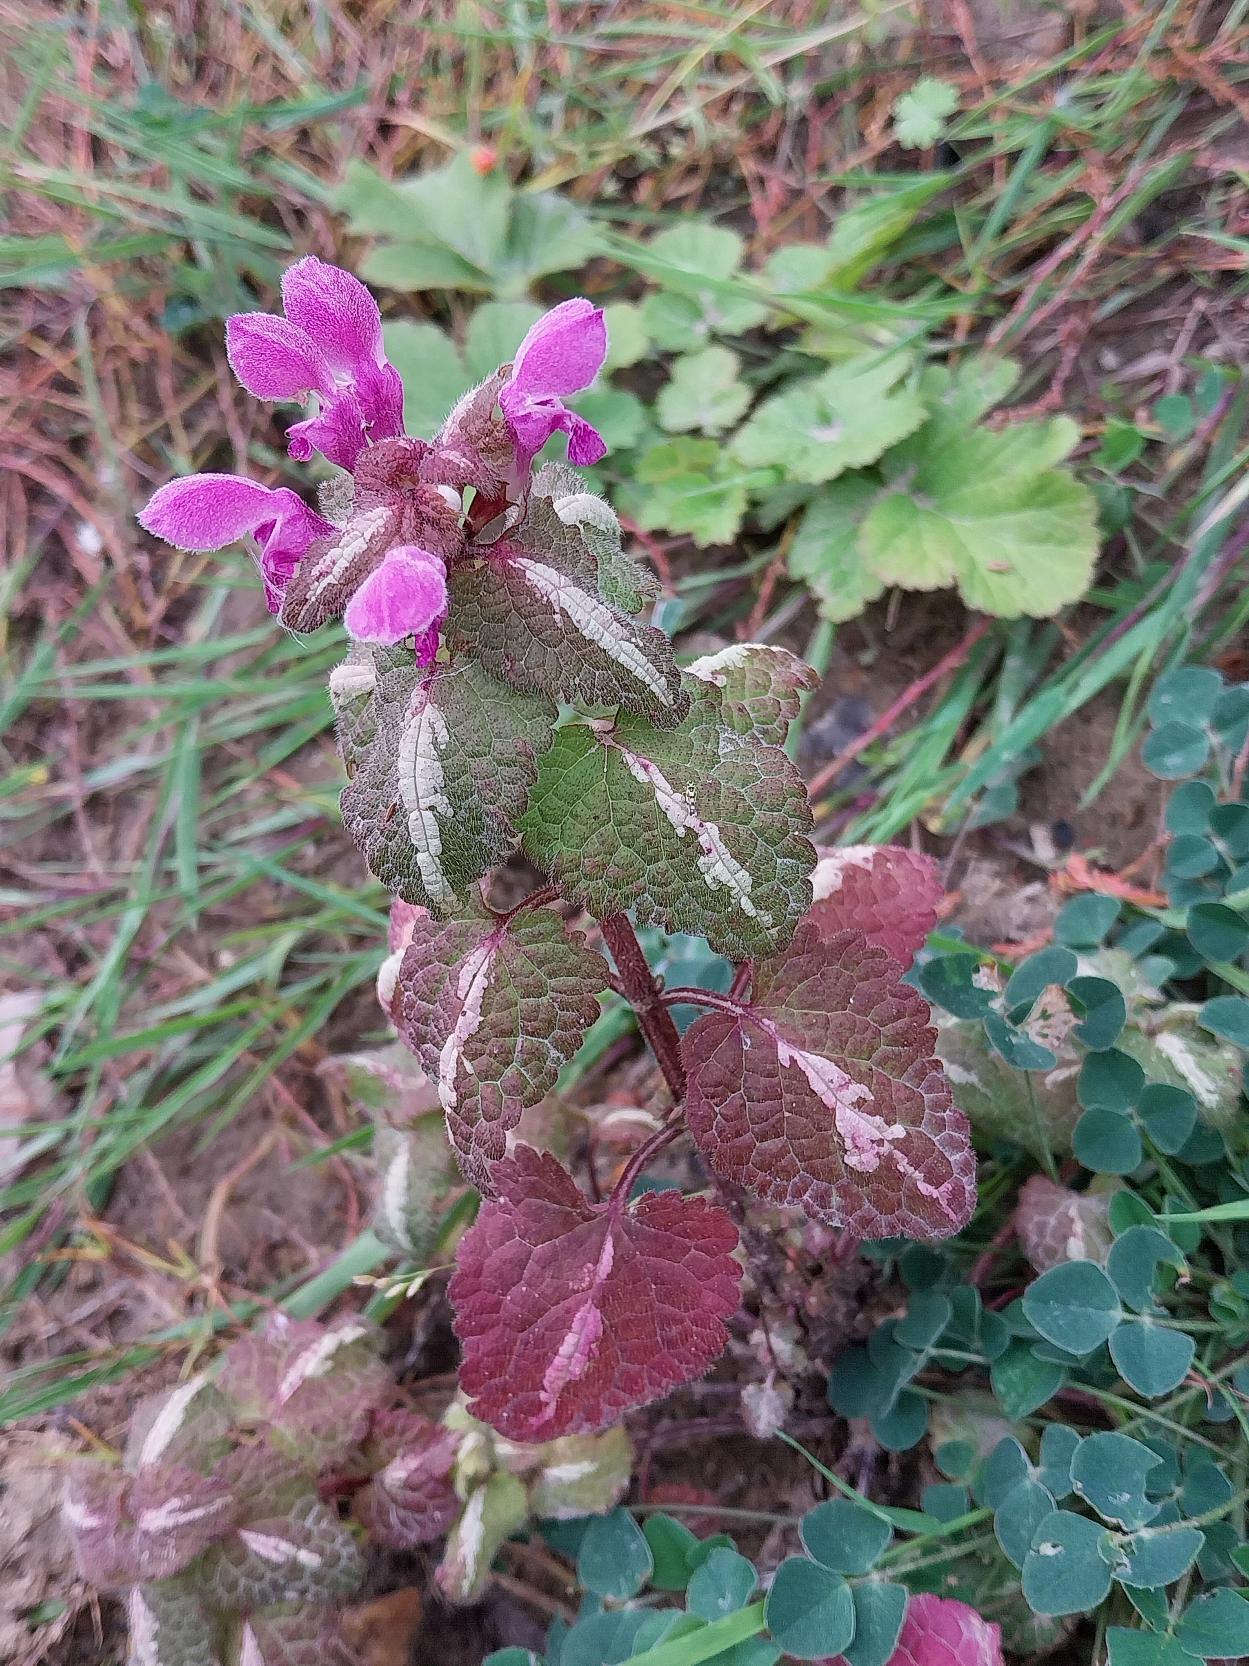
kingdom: Plantae
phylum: Tracheophyta
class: Magnoliopsida
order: Lamiales
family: Lamiaceae
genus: Lamium
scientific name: Lamium maculatum
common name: Plettet tvetand
